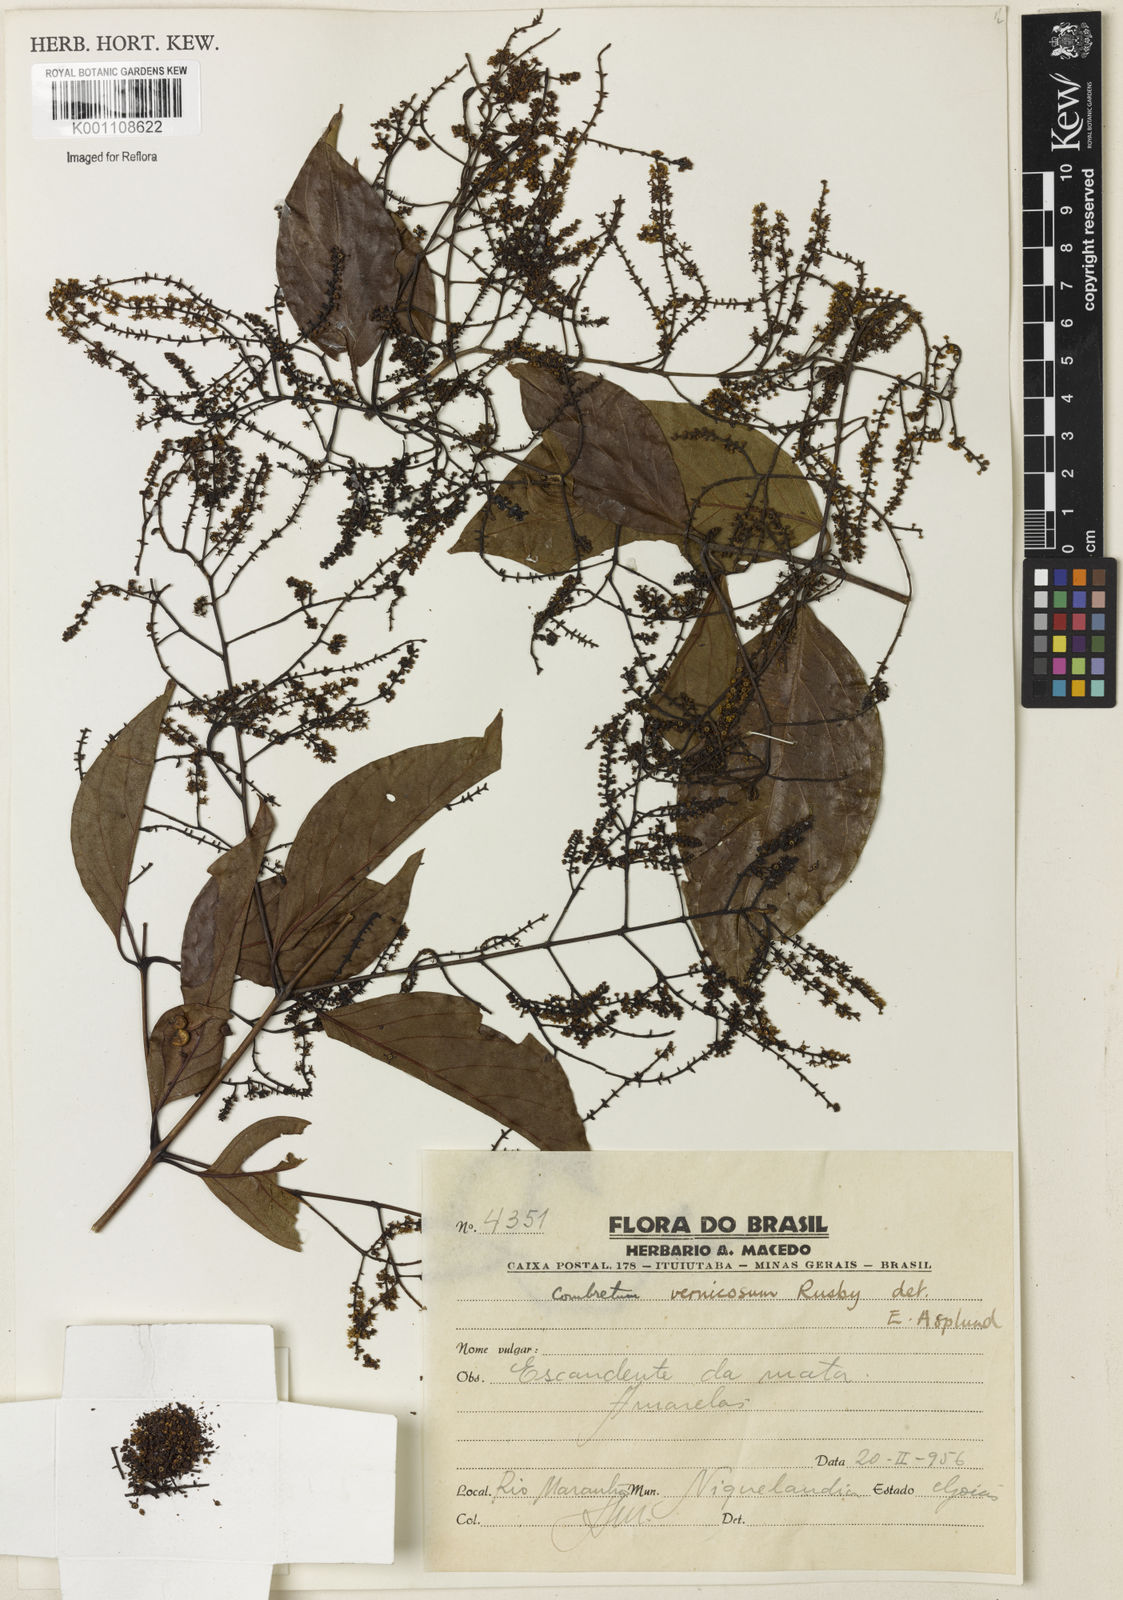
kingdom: Plantae
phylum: Tracheophyta
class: Magnoliopsida
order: Myrtales
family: Combretaceae
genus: Combretum
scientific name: Combretum vernicosum
